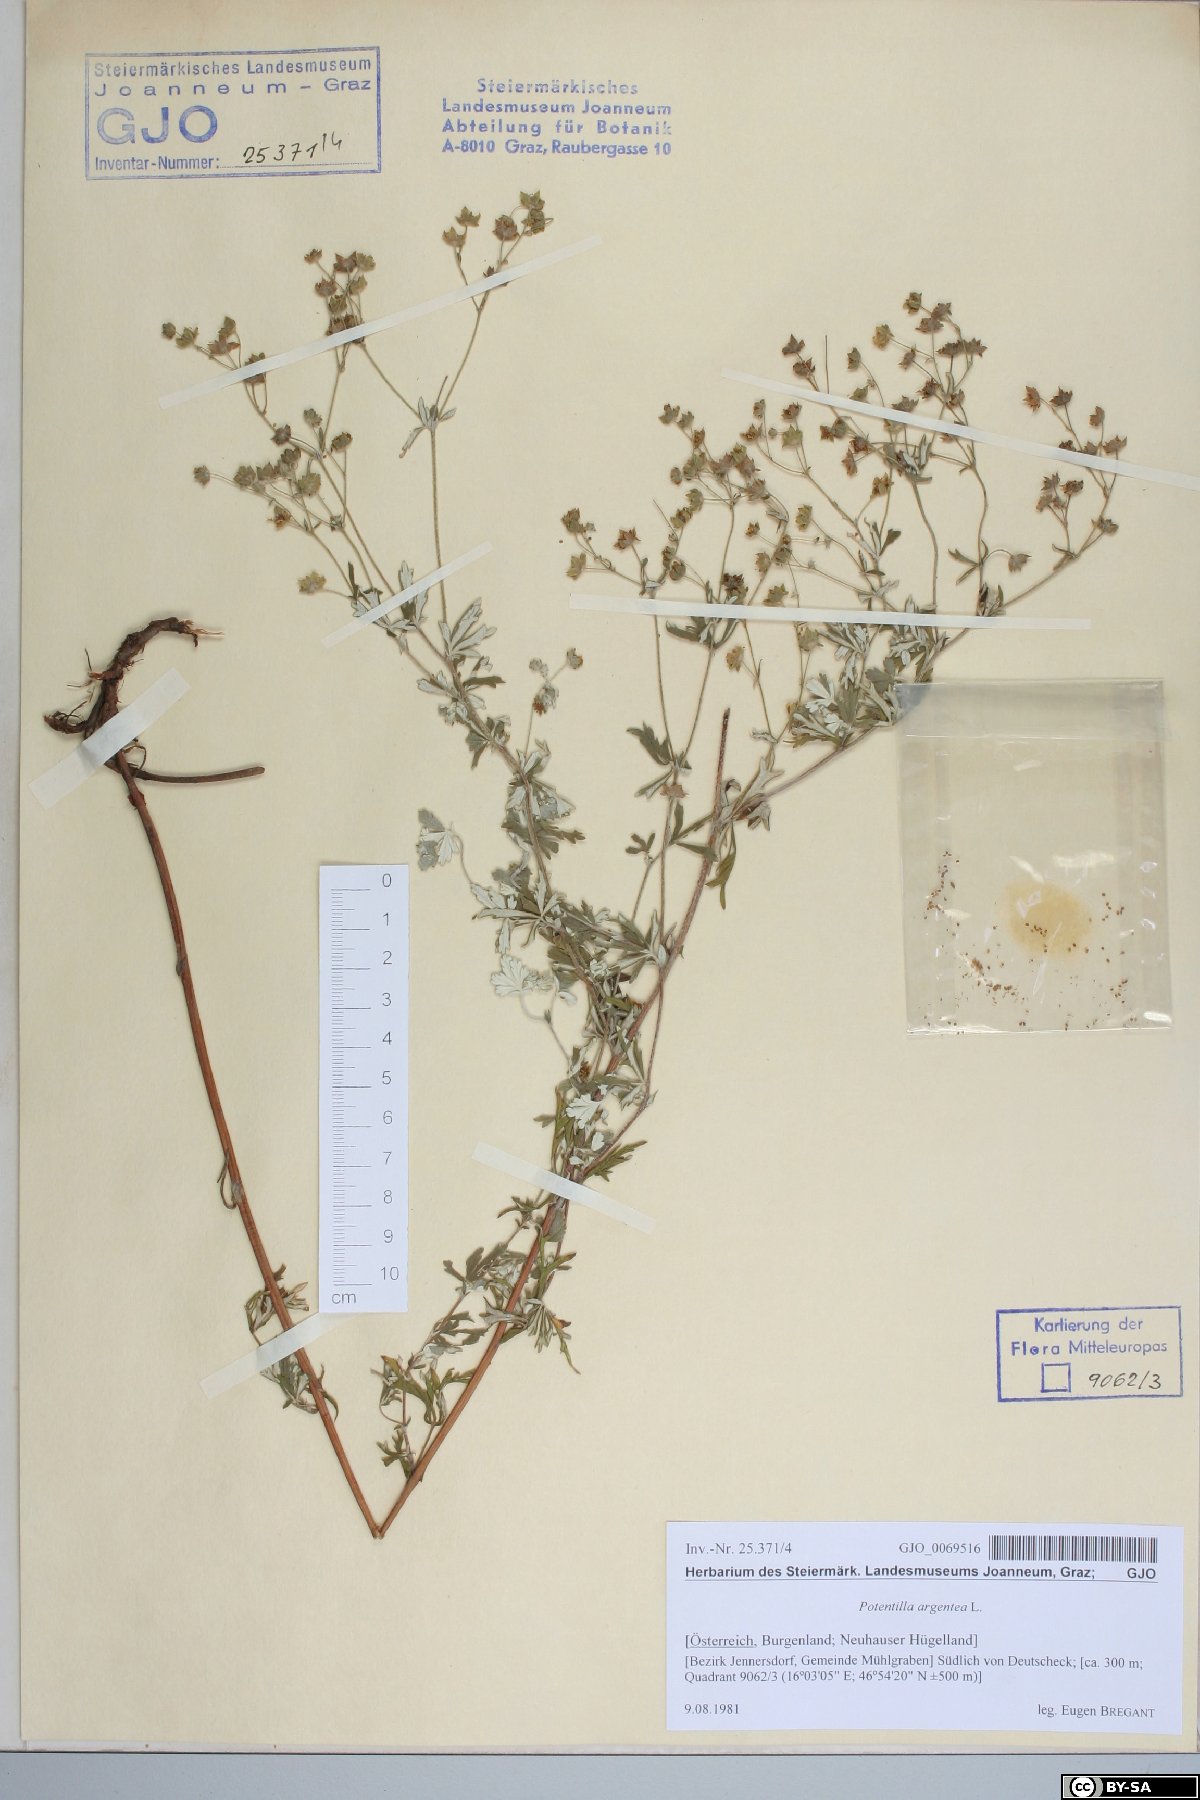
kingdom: Plantae
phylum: Tracheophyta
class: Magnoliopsida
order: Rosales
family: Rosaceae
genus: Potentilla
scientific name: Potentilla argentea
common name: Hoary cinquefoil
